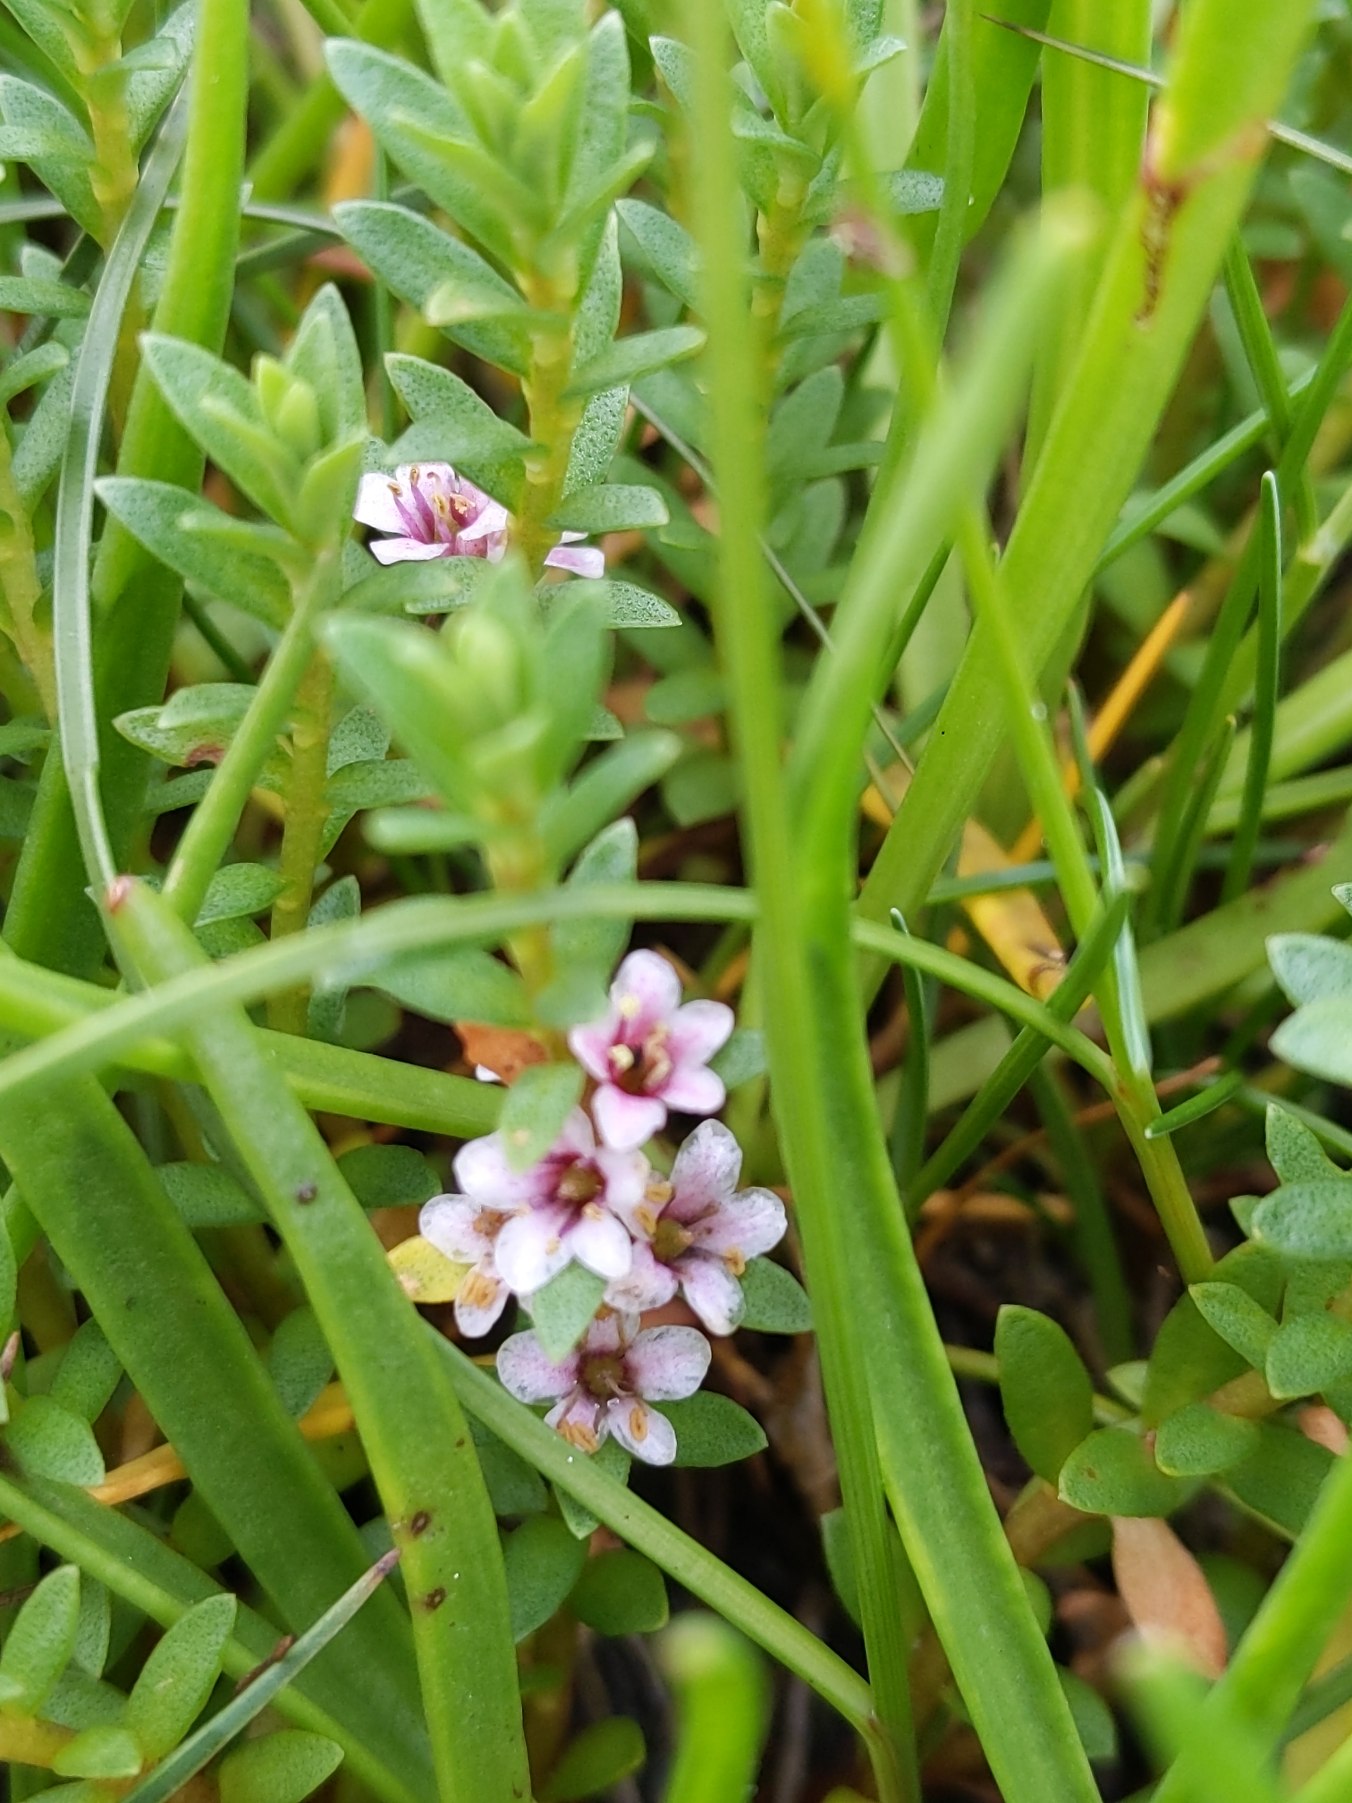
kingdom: Plantae
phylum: Tracheophyta
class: Magnoliopsida
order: Ericales
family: Primulaceae
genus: Lysimachia
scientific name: Lysimachia maritima
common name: Sandkryb
